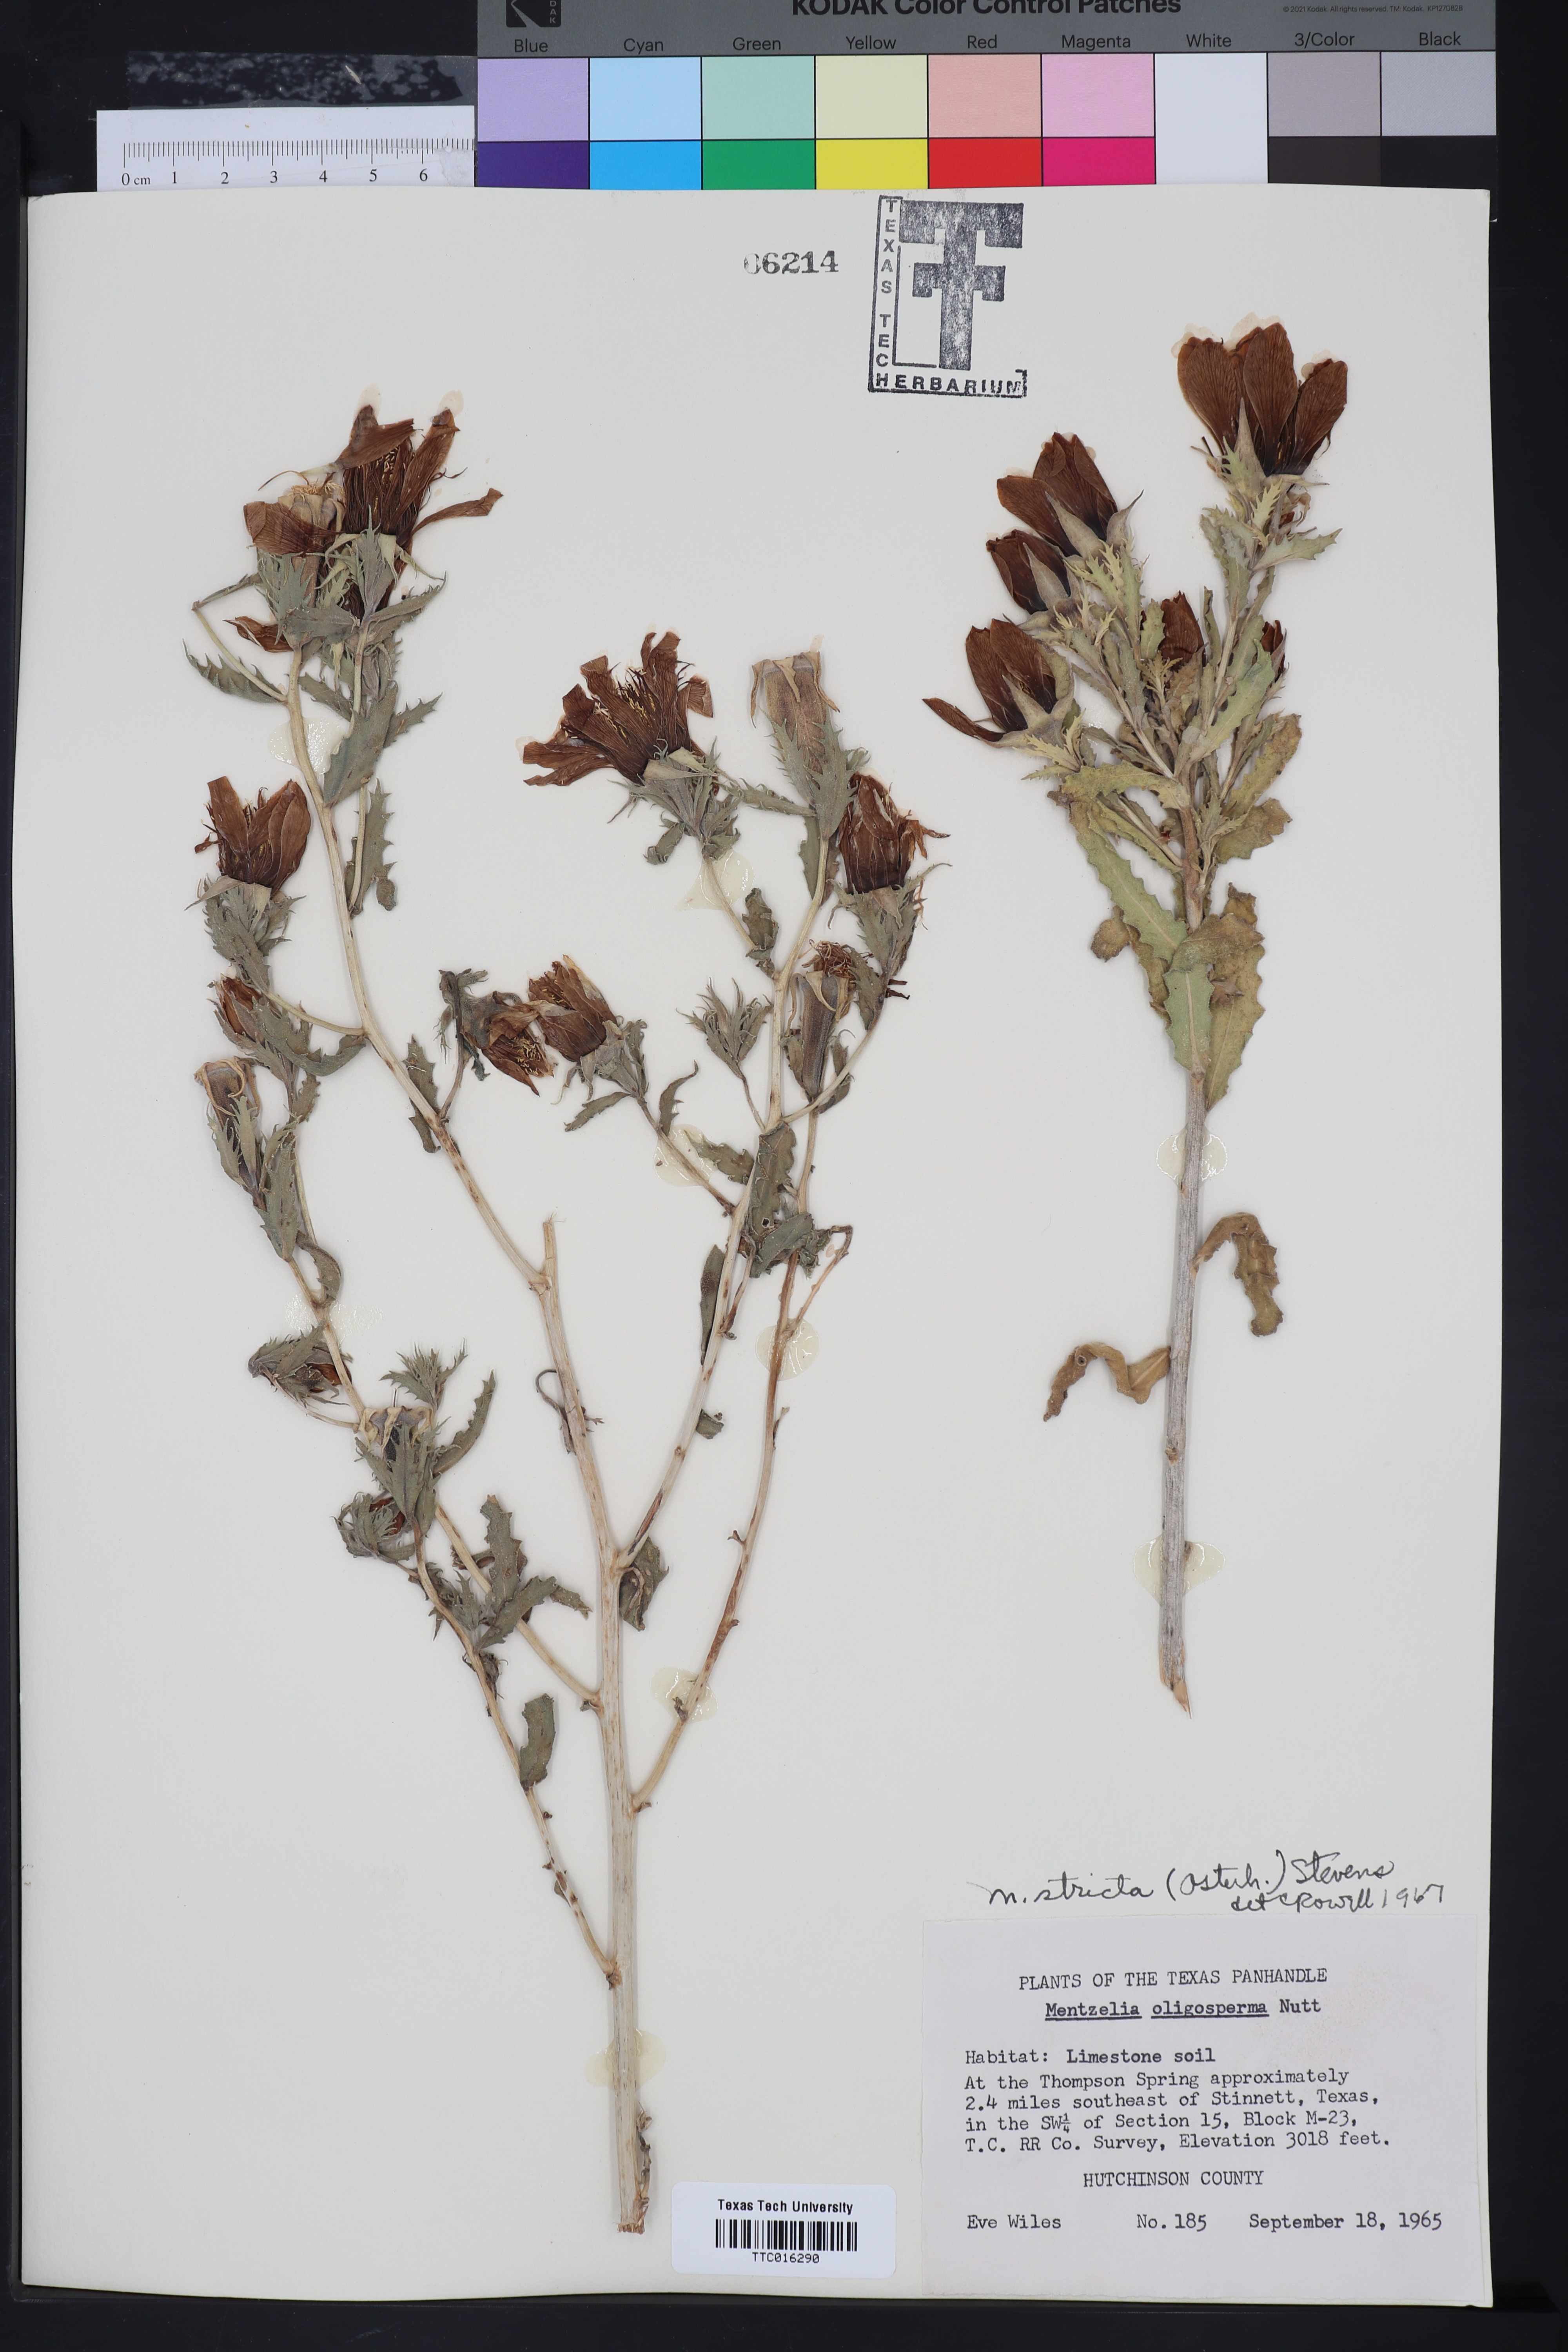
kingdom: Plantae
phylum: Tracheophyta
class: Magnoliopsida
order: Cornales
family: Loasaceae
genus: Mentzelia
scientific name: Mentzelia nuda
